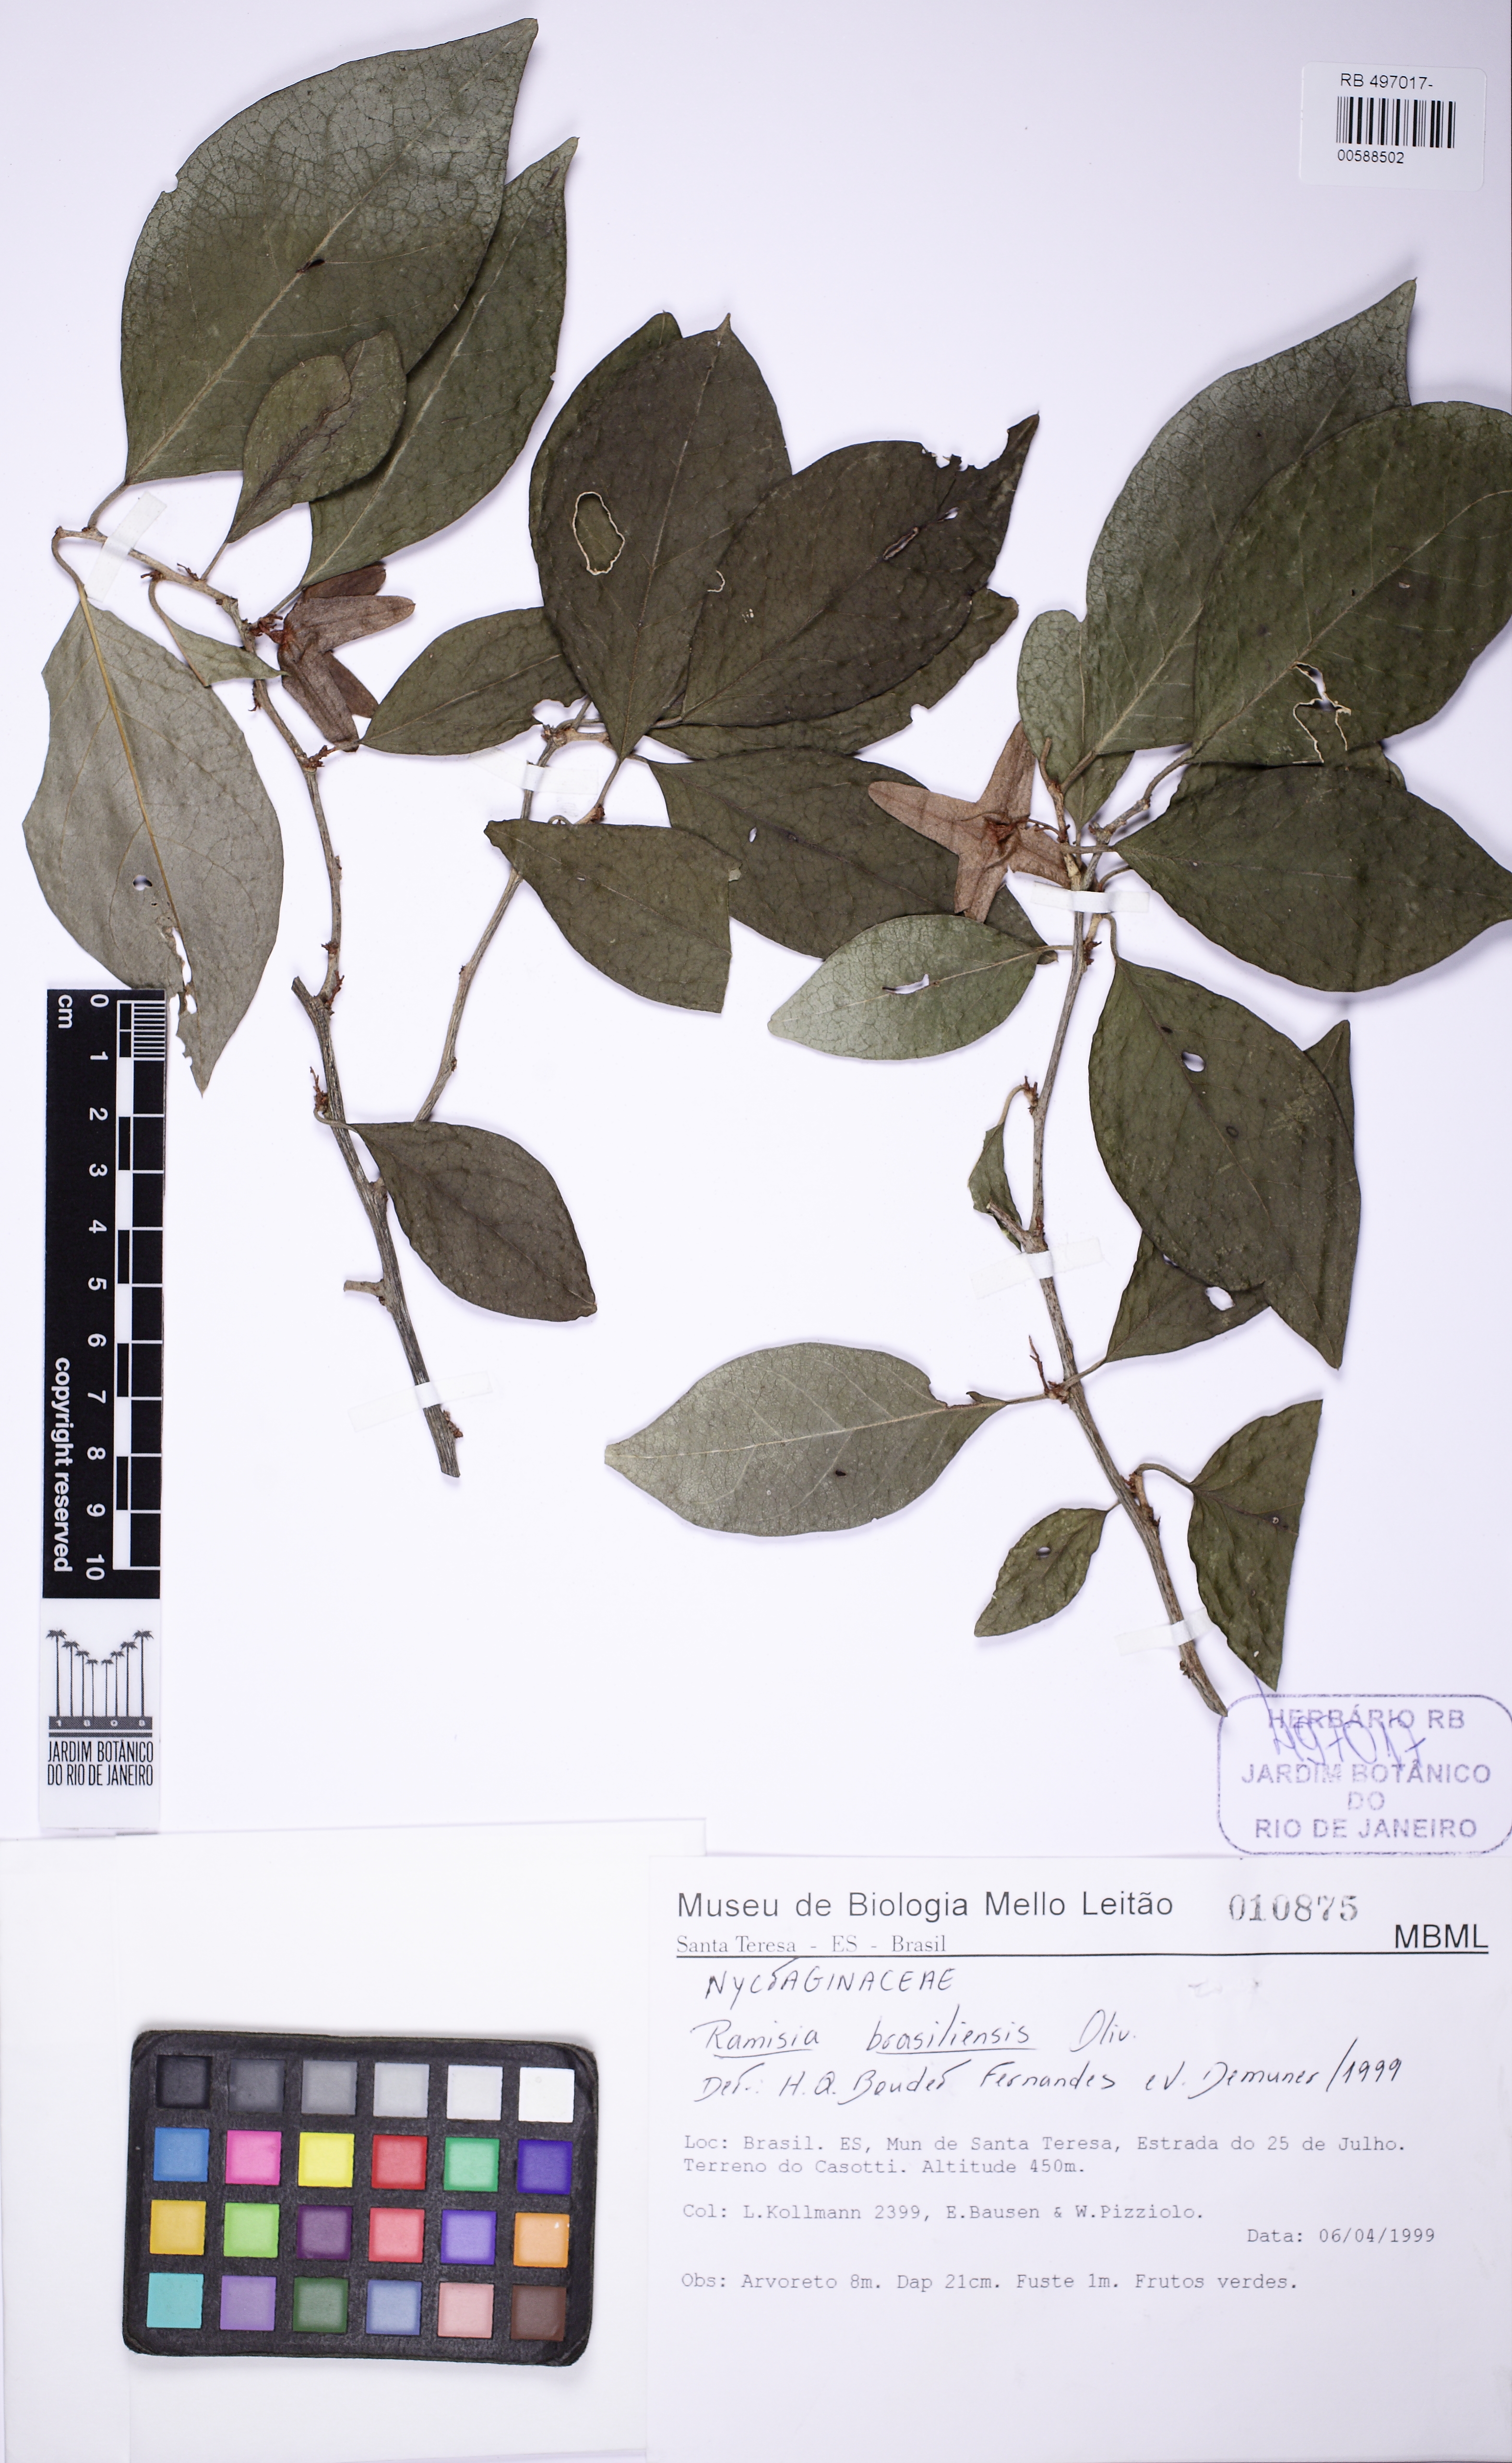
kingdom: Plantae
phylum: Tracheophyta
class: Magnoliopsida
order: Caryophyllales
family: Nyctaginaceae
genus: Ramisia
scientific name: Ramisia brasiliensis
